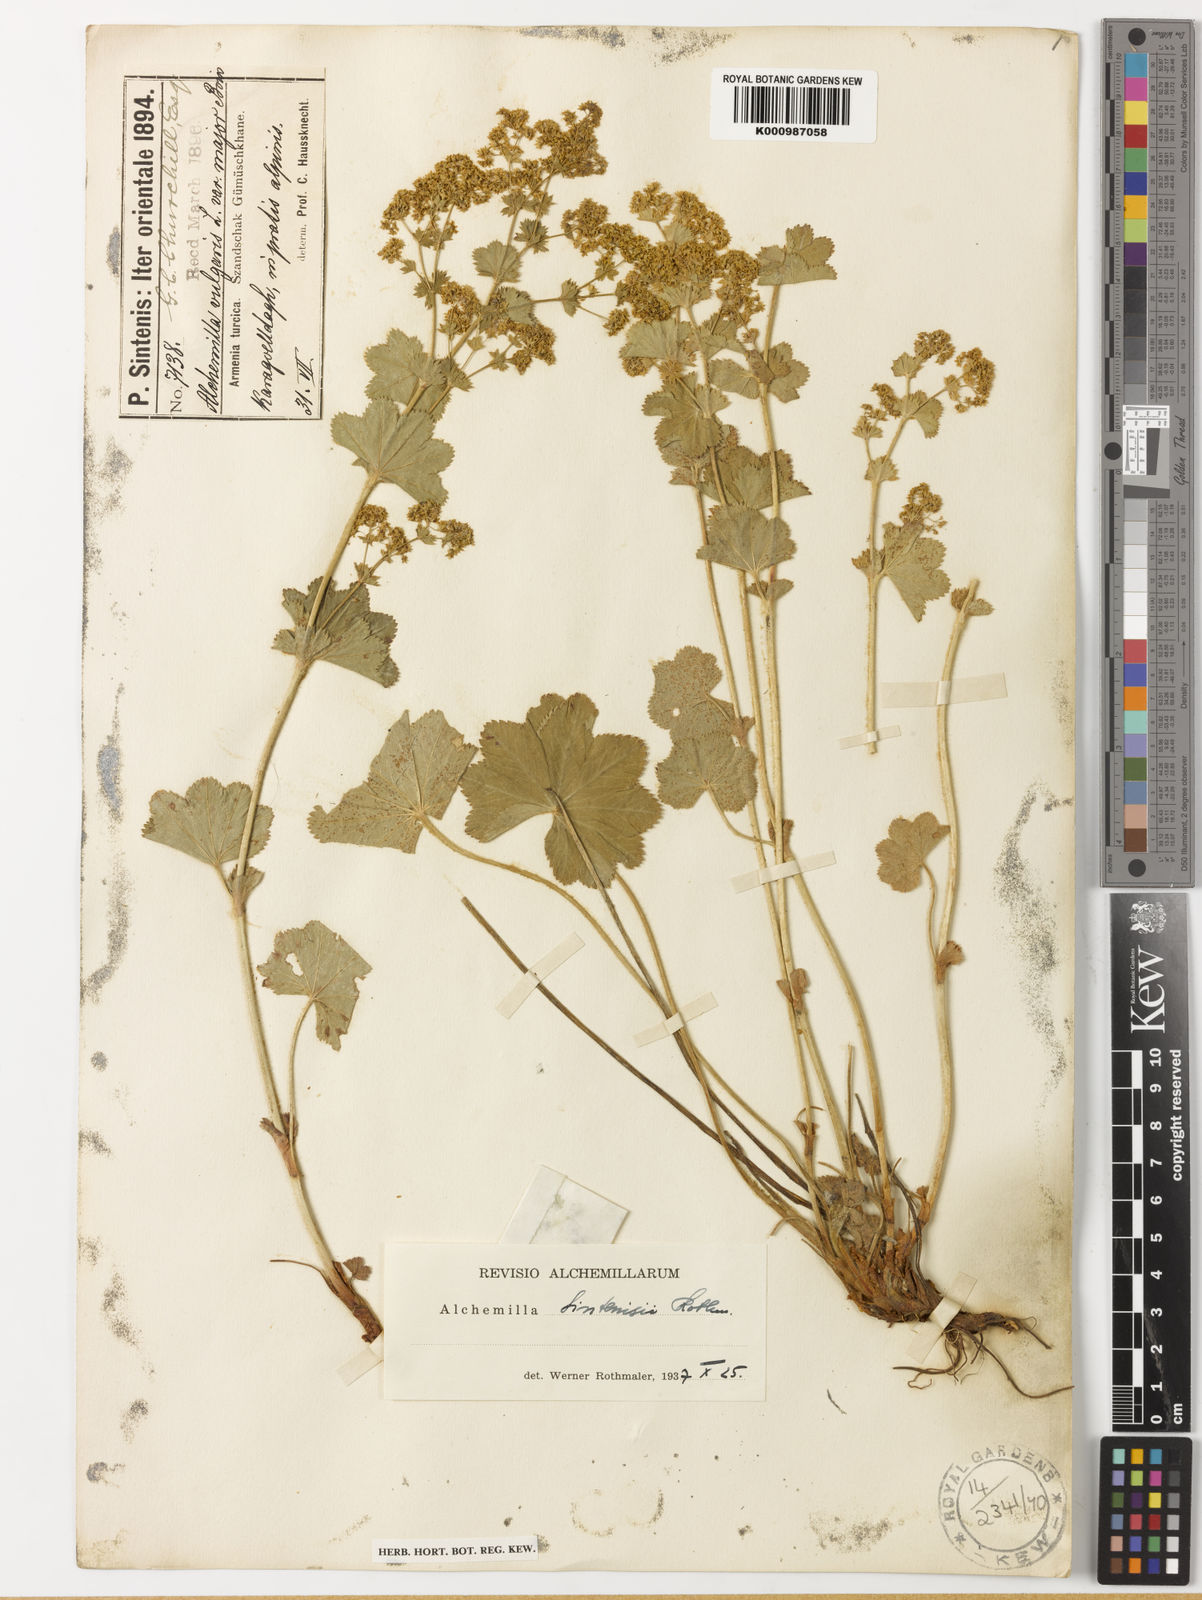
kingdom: Plantae
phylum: Tracheophyta
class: Magnoliopsida
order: Rosales
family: Rosaceae
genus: Alchemilla
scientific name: Alchemilla sintenisii
